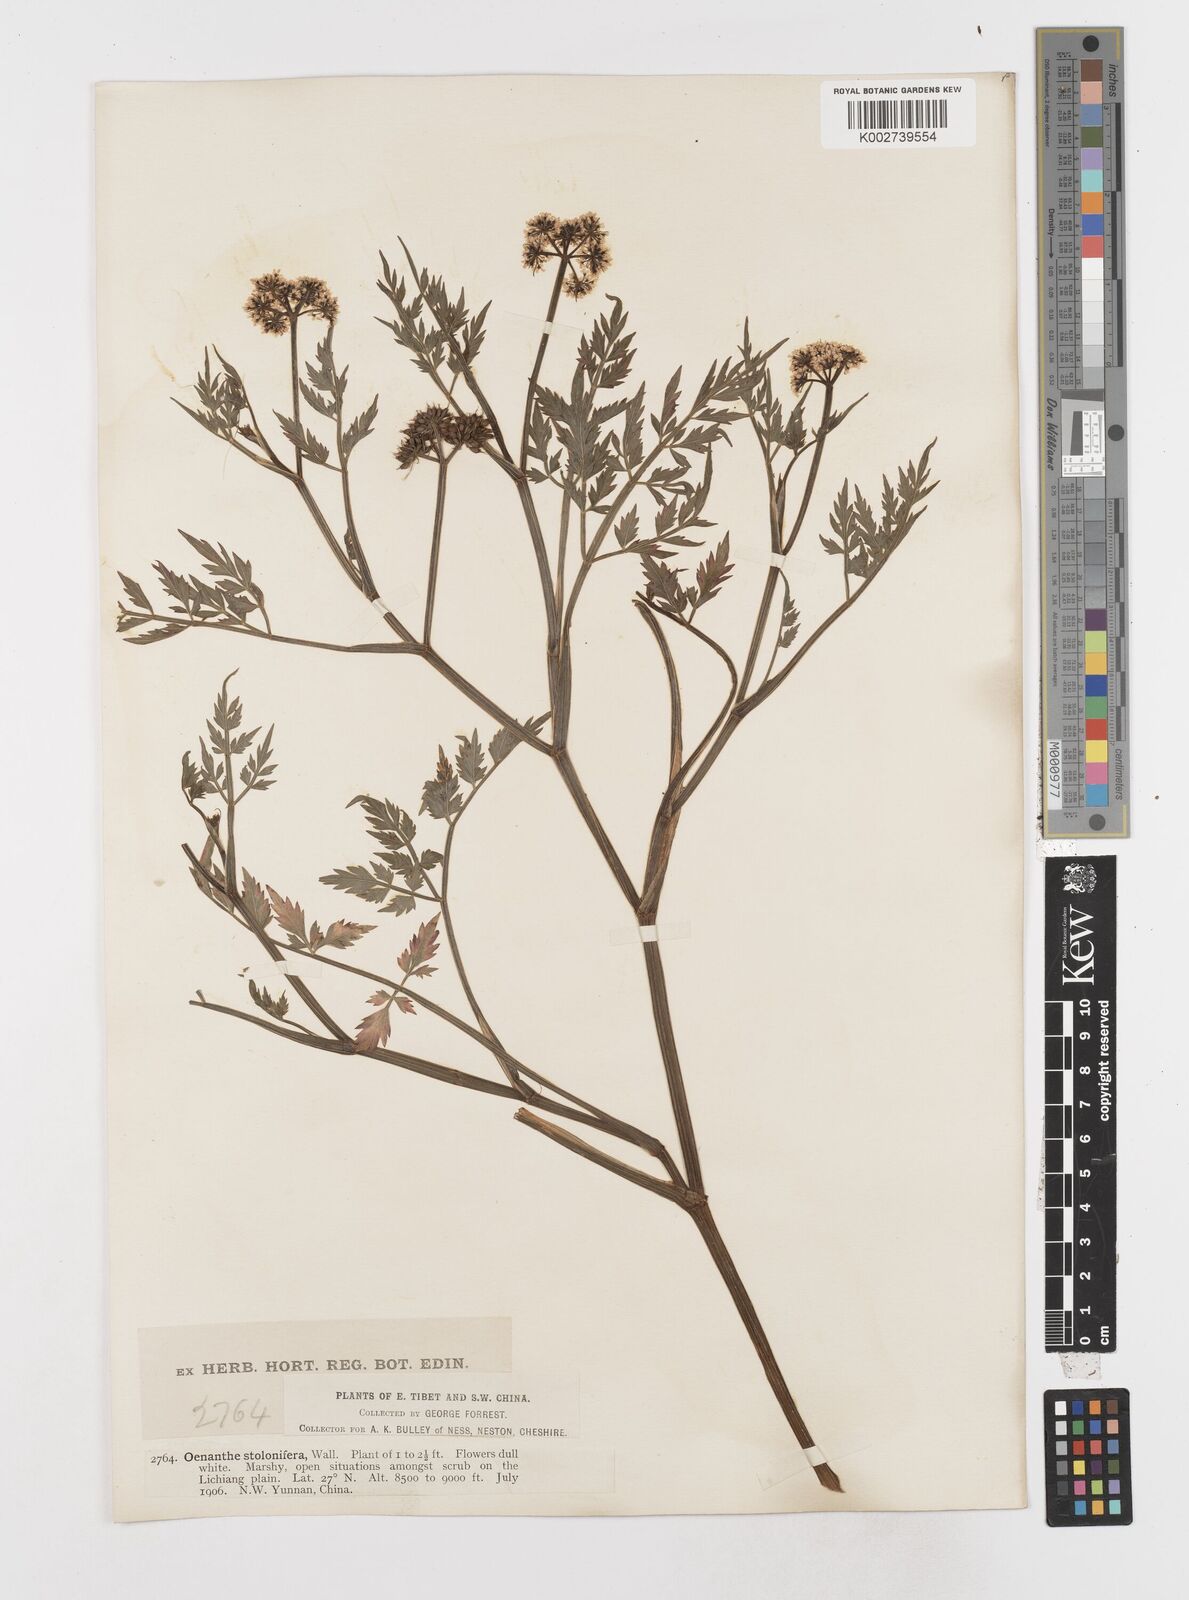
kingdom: Plantae
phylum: Tracheophyta
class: Magnoliopsida
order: Apiales
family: Apiaceae
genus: Oenanthe
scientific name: Oenanthe javanica
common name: Java water-dropwort
